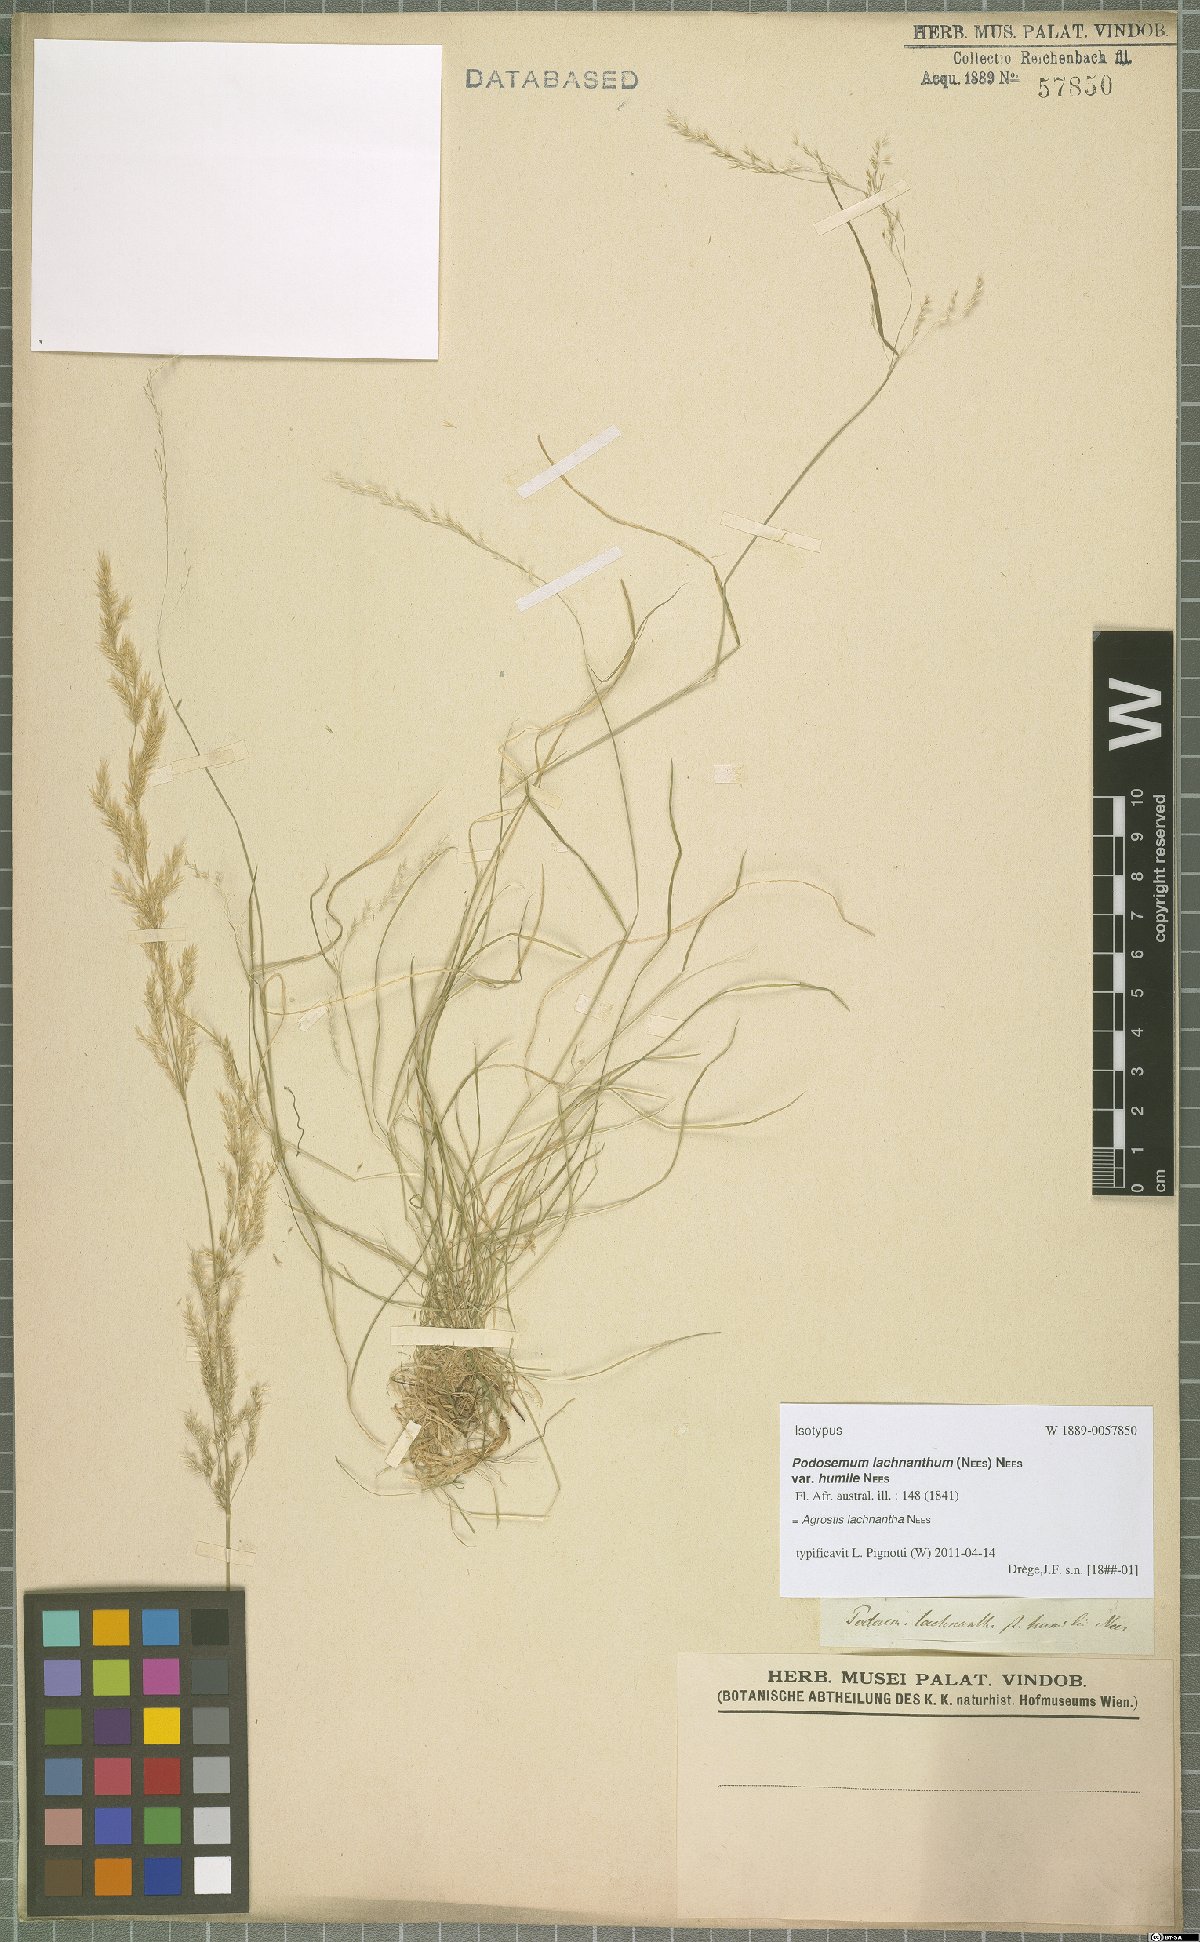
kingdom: Plantae
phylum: Tracheophyta
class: Liliopsida
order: Poales
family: Poaceae
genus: Lachnagrostis
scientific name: Lachnagrostis lachnantha
